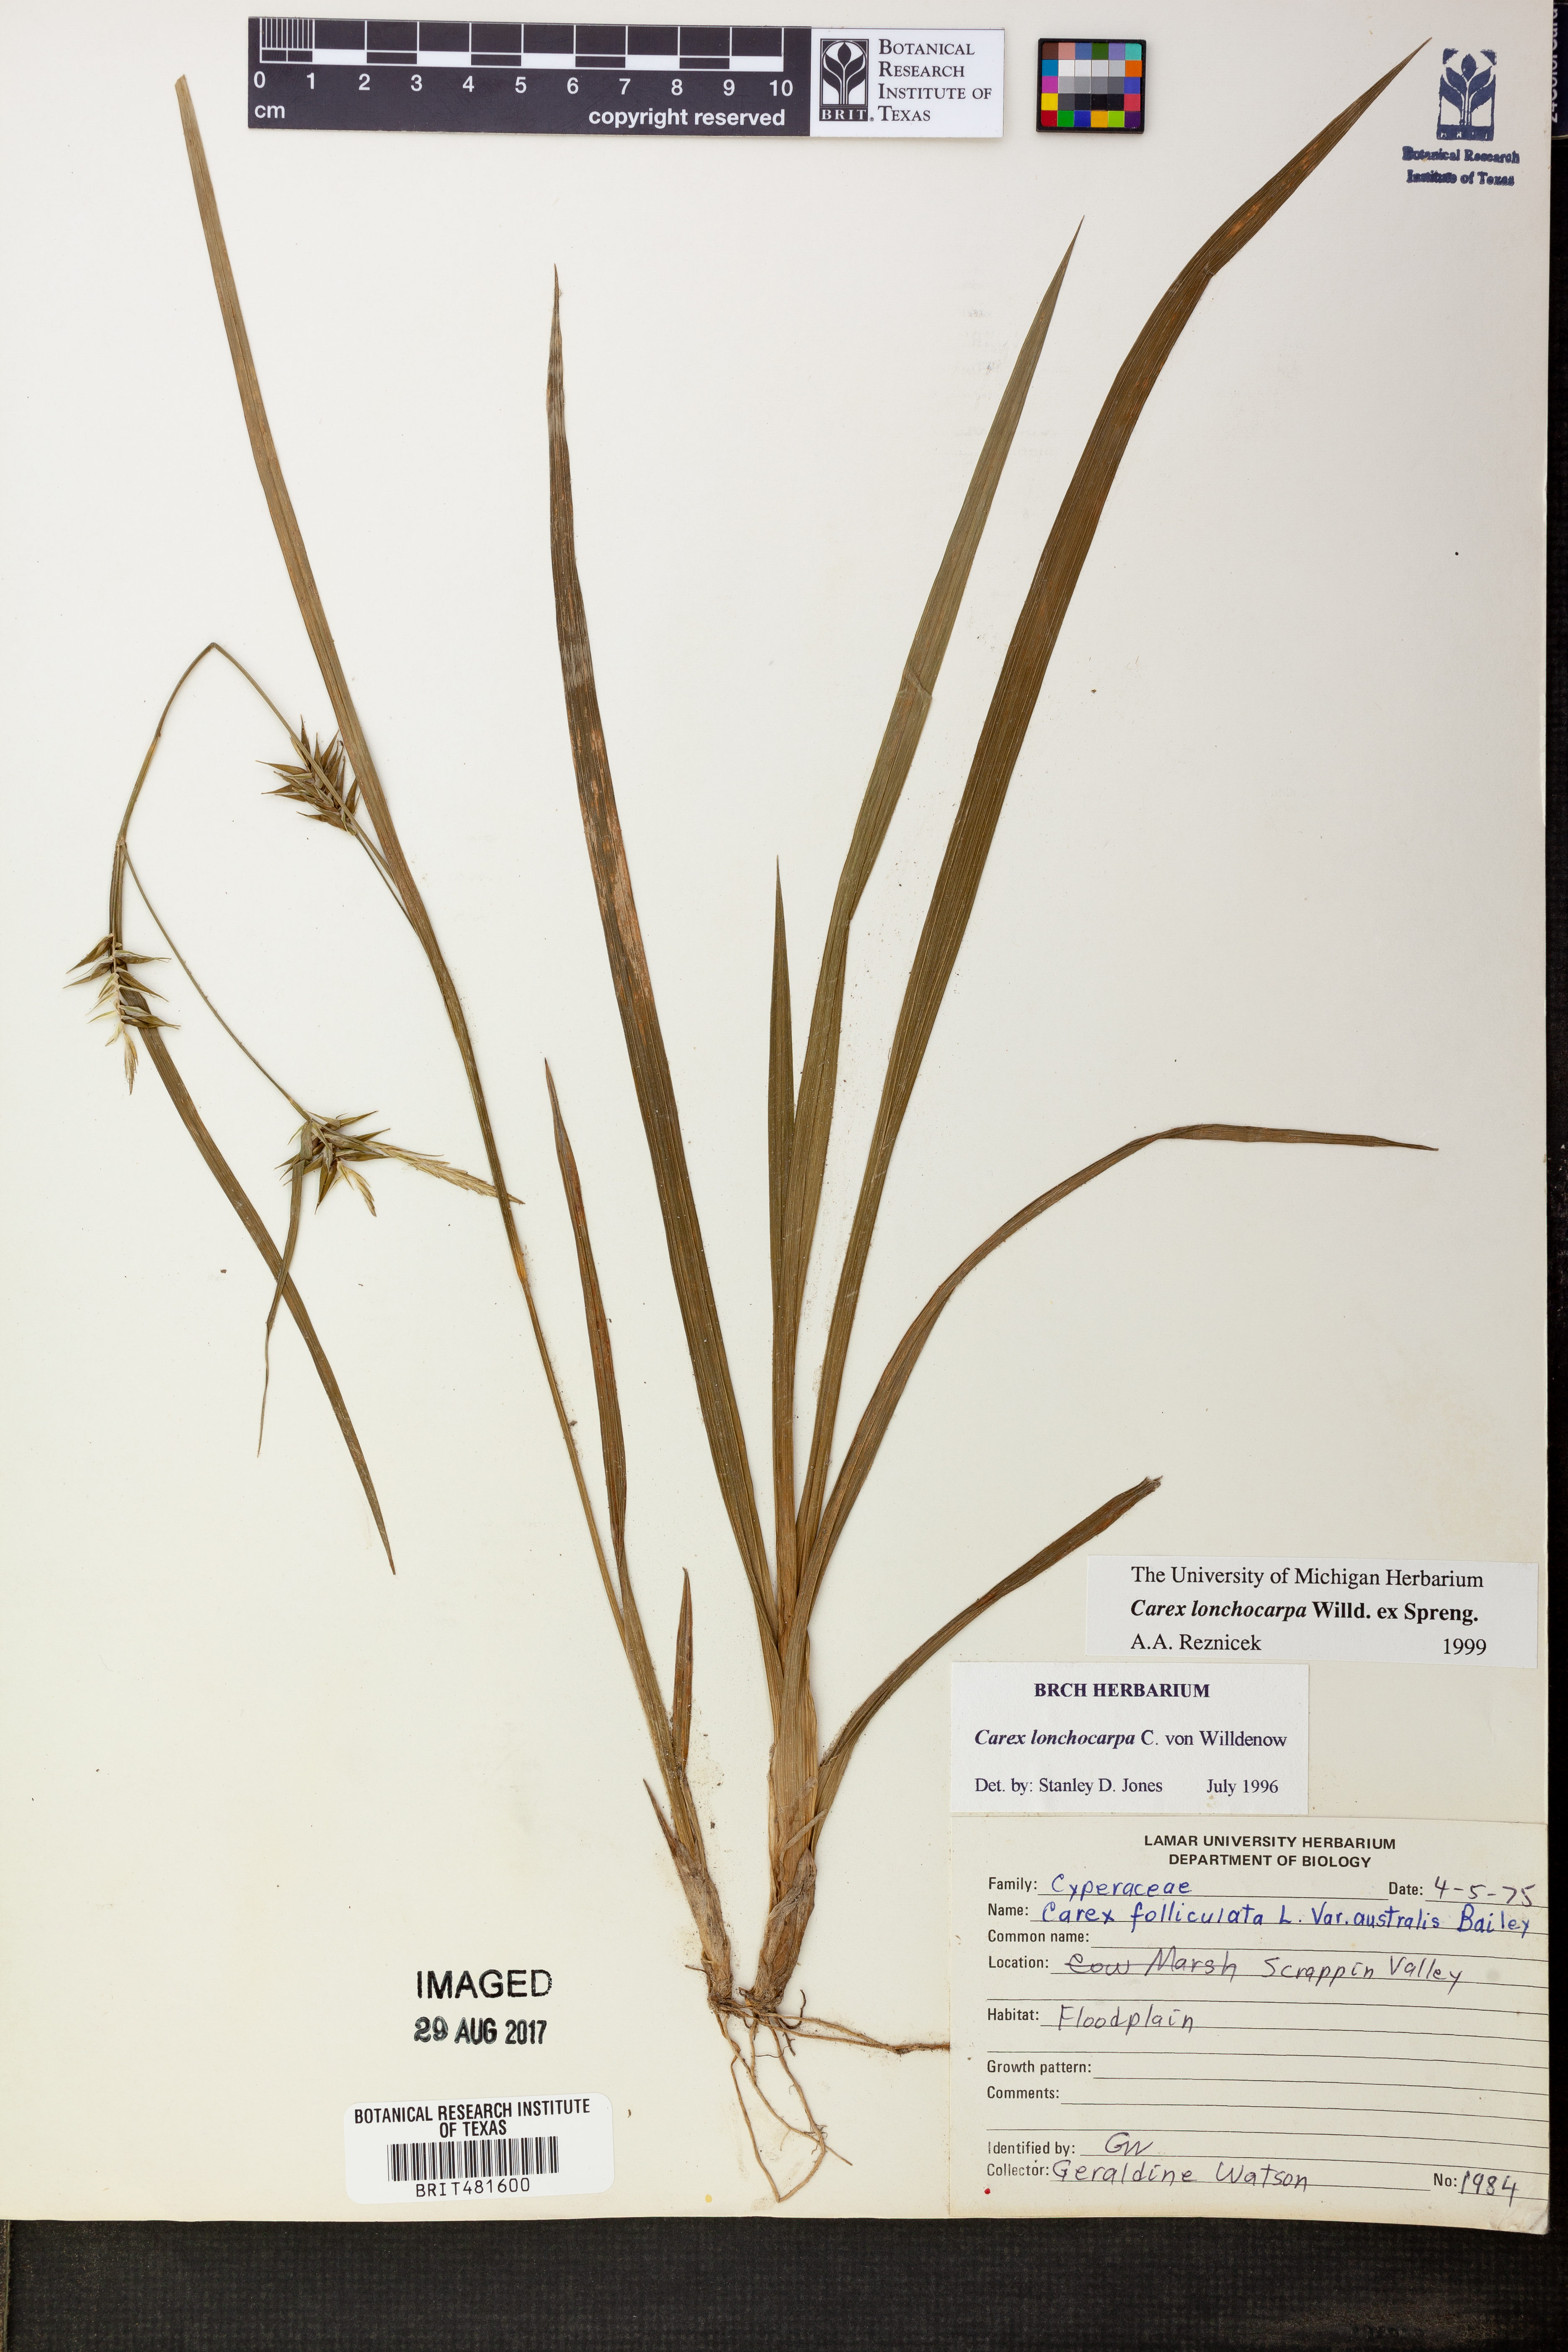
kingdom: Plantae
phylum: Tracheophyta
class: Liliopsida
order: Poales
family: Cyperaceae
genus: Carex
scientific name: Carex lonchocarpa
